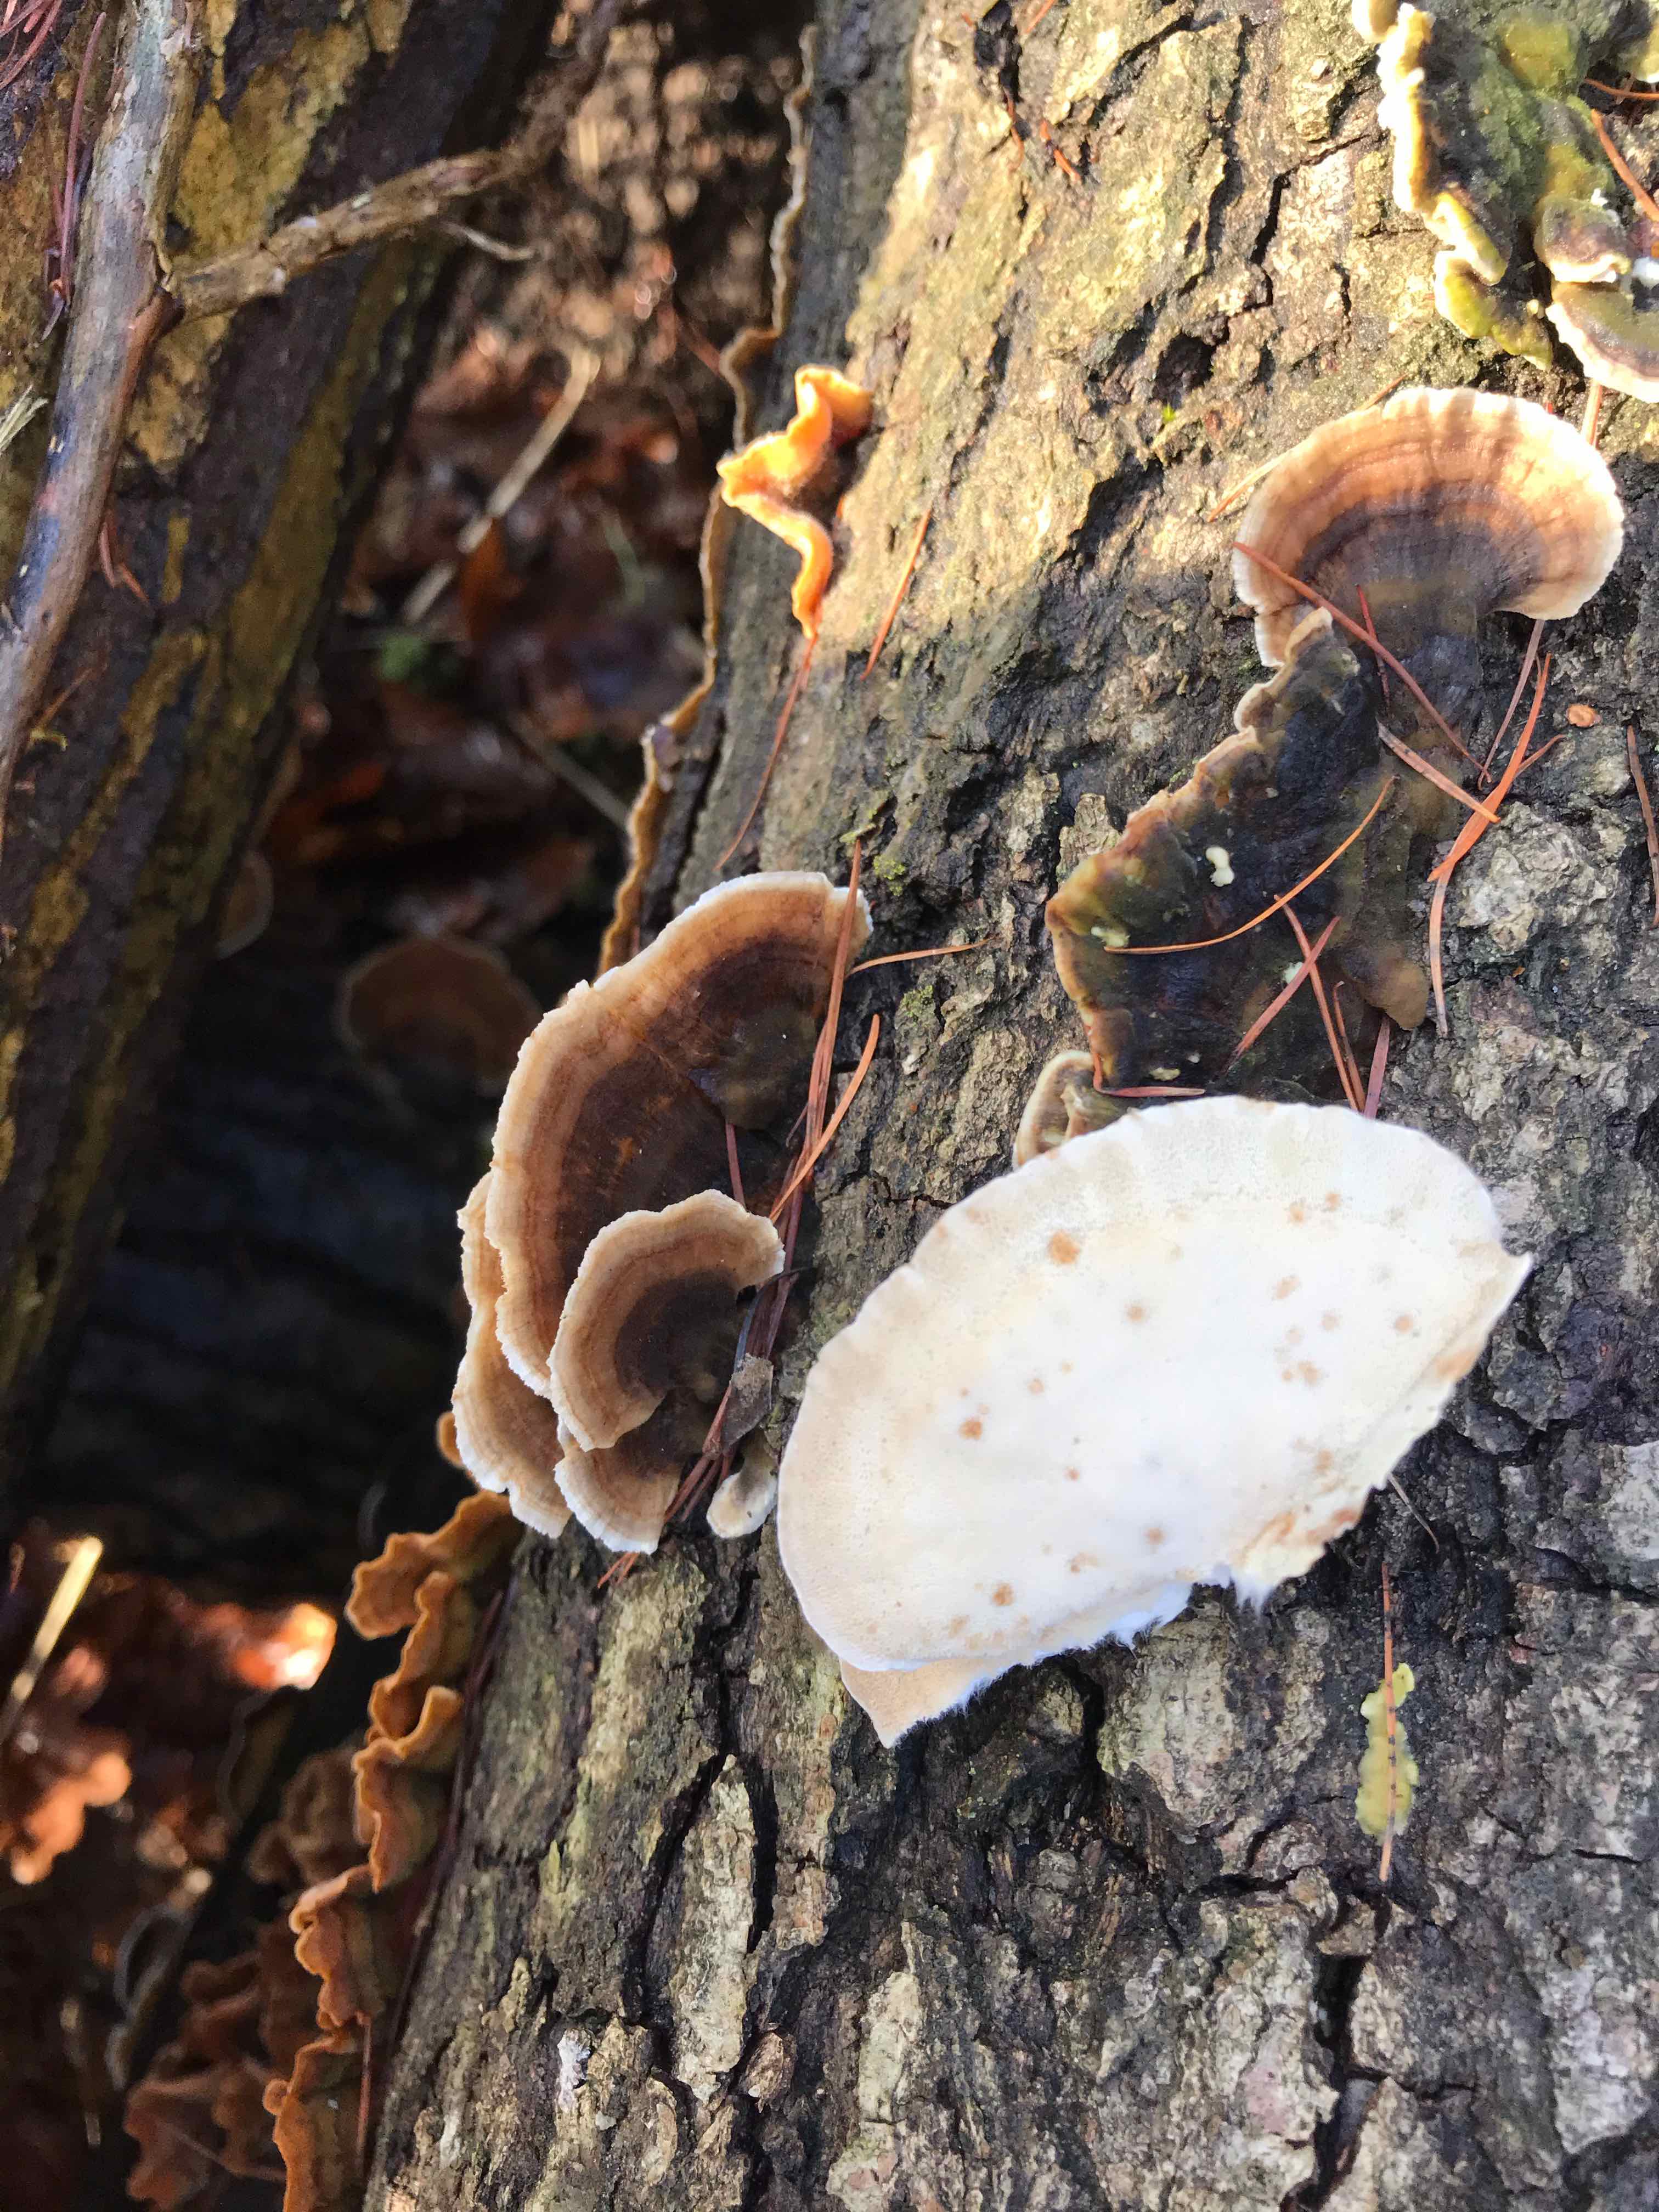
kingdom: Fungi
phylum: Basidiomycota
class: Agaricomycetes
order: Polyporales
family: Polyporaceae
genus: Trametes
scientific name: Trametes versicolor
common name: broget læderporesvamp
